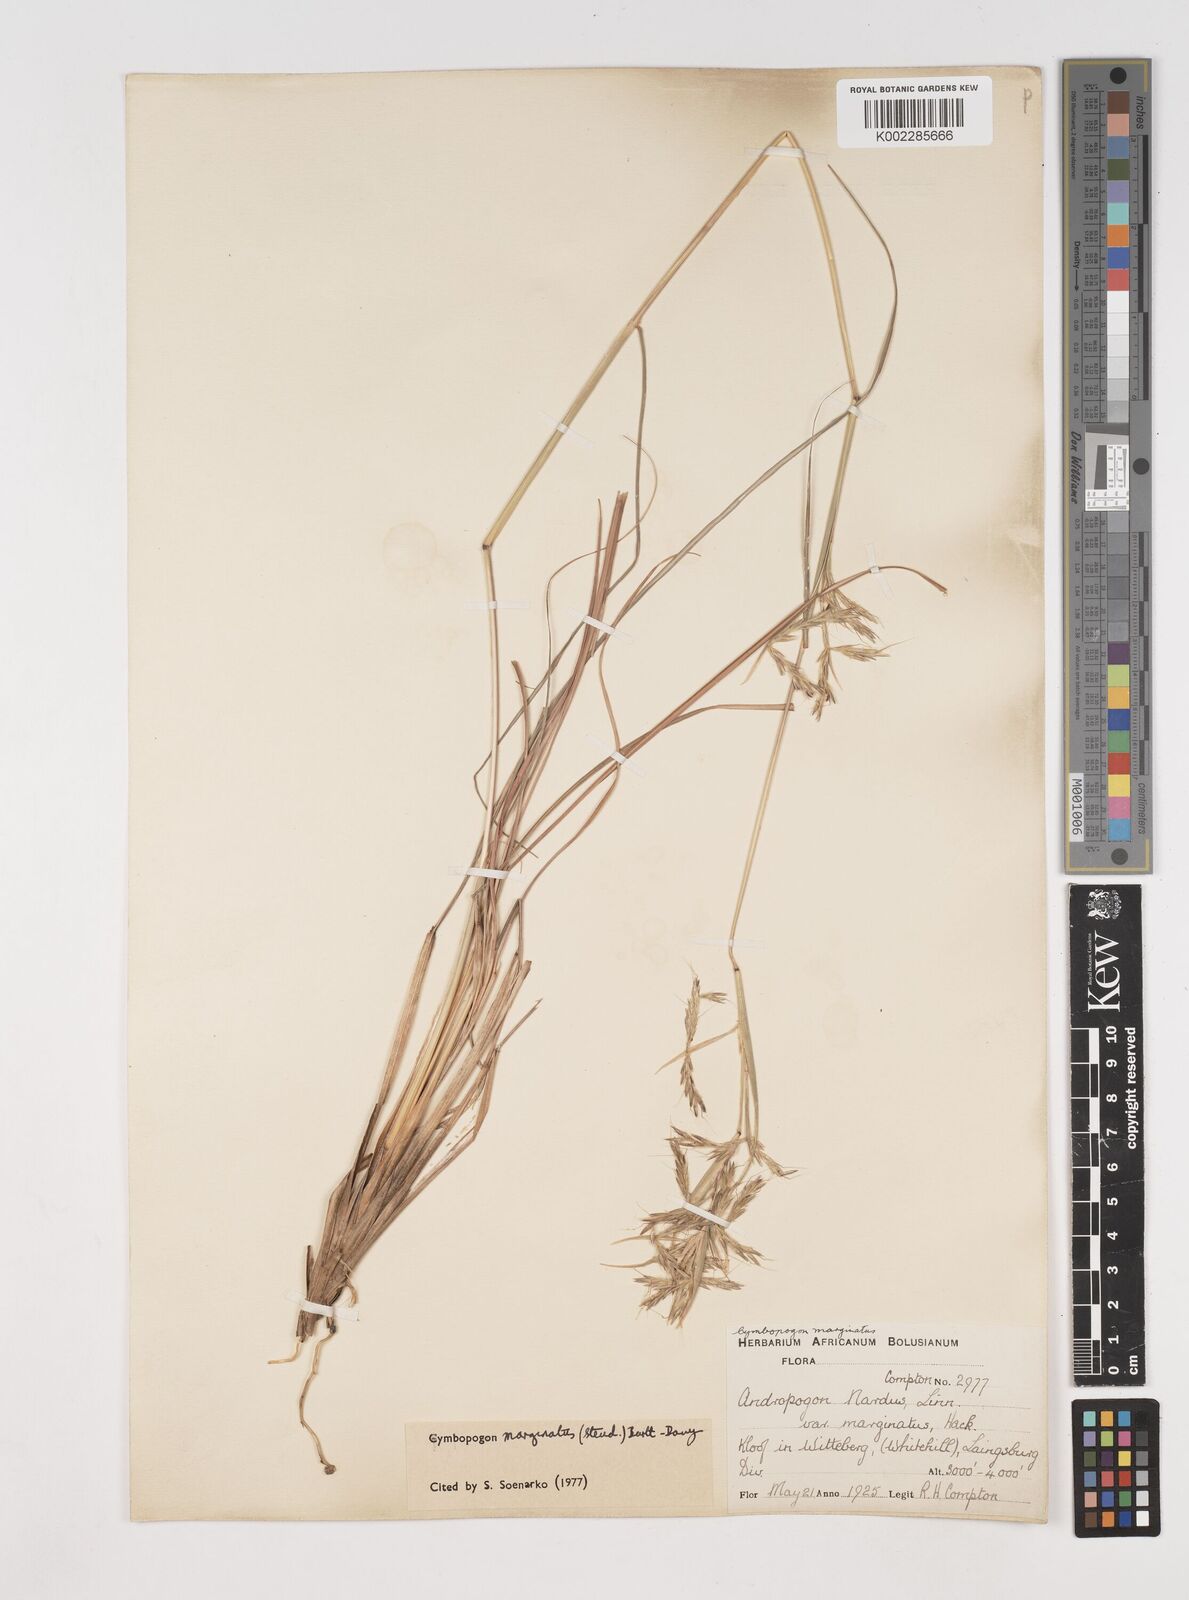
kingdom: Plantae
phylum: Tracheophyta
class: Liliopsida
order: Poales
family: Poaceae
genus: Cymbopogon
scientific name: Cymbopogon marginatus
